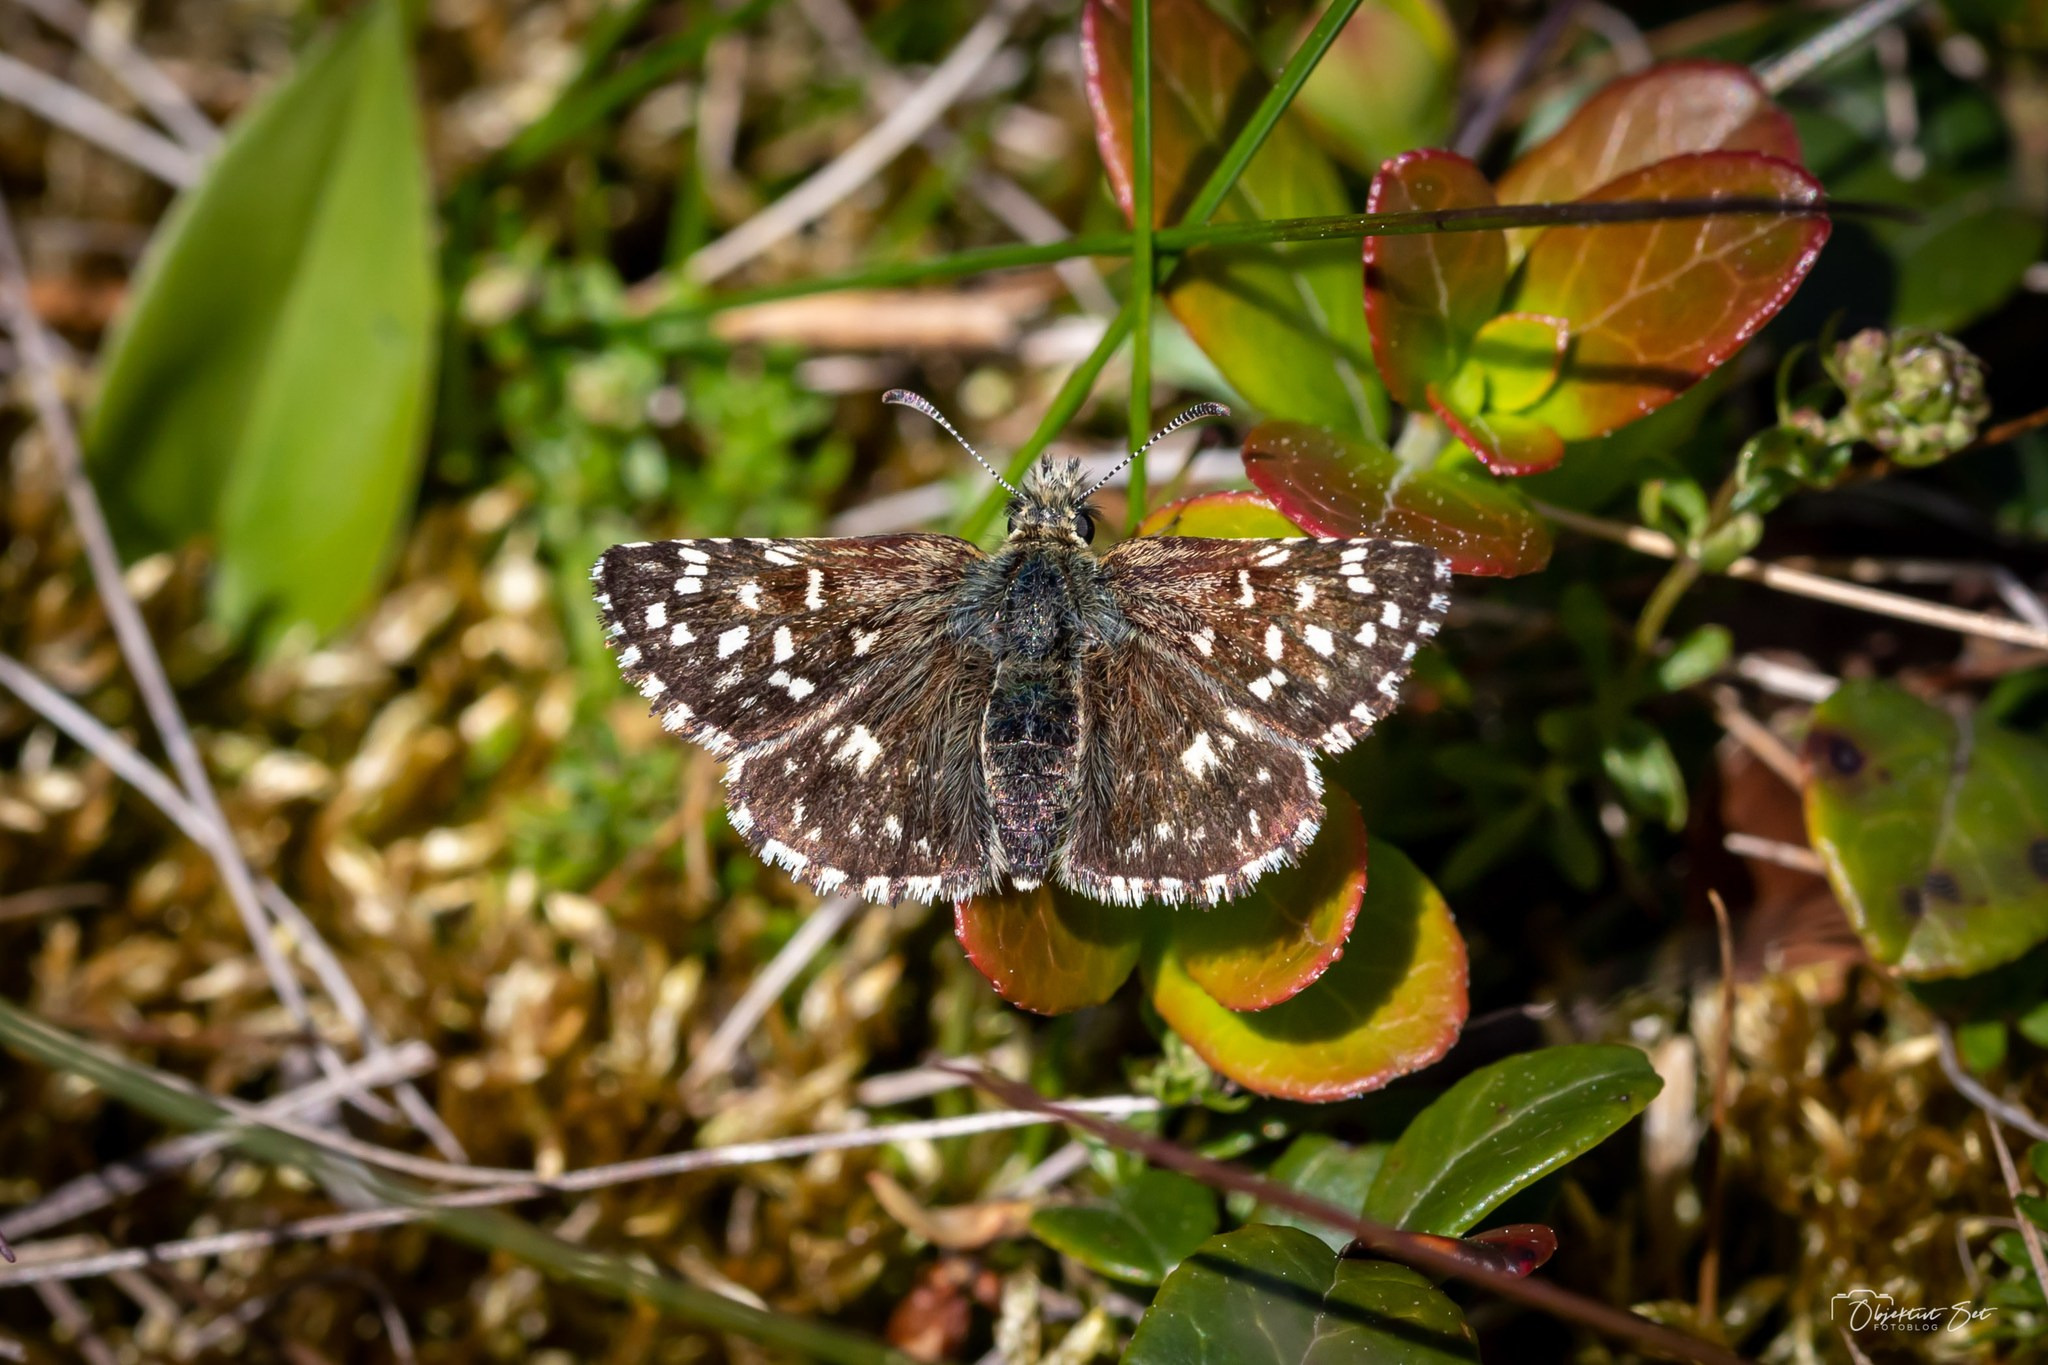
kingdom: Animalia
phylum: Arthropoda
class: Insecta
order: Lepidoptera
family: Hesperiidae
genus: Pyrgus
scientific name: Pyrgus malvae
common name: Spættet bredpande
